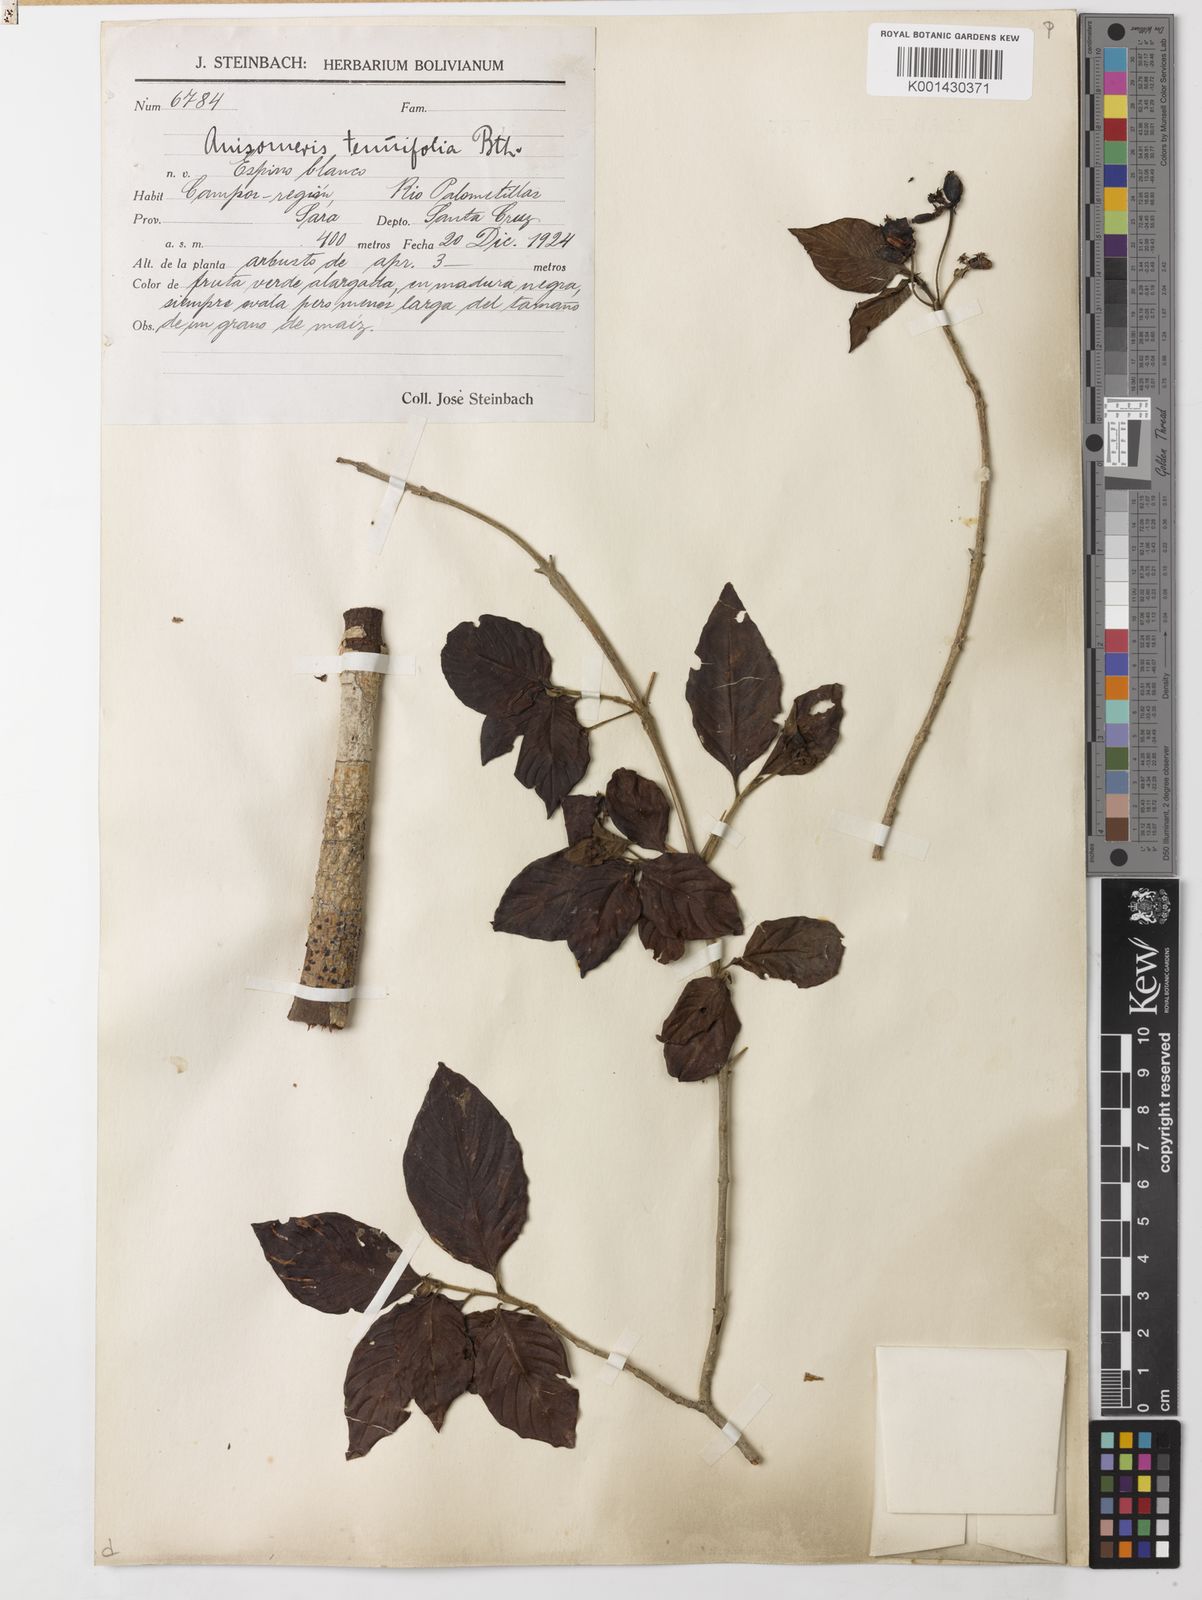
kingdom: Plantae
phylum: Tracheophyta
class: Magnoliopsida
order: Gentianales
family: Rubiaceae
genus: Chomelia
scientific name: Chomelia paniculata
